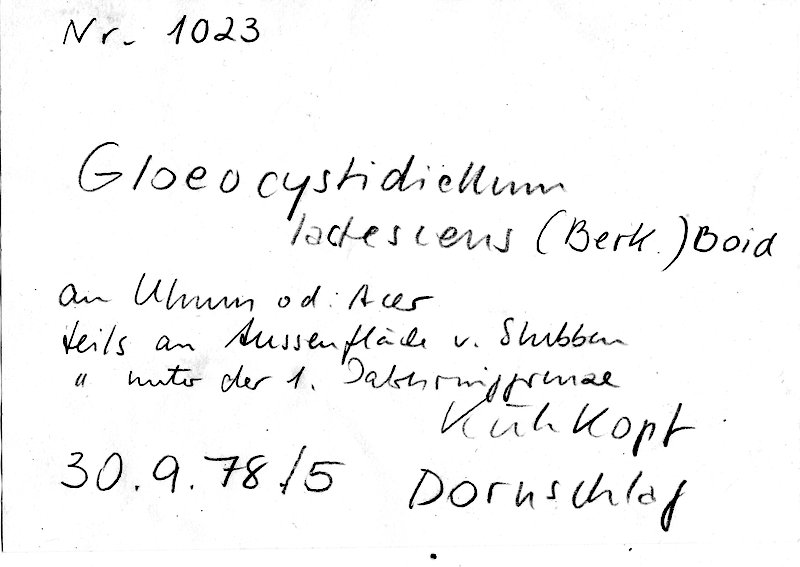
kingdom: Plantae
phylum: Tracheophyta
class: Magnoliopsida
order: Rosales
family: Ulmaceae
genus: Ulmus
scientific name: Ulmus
